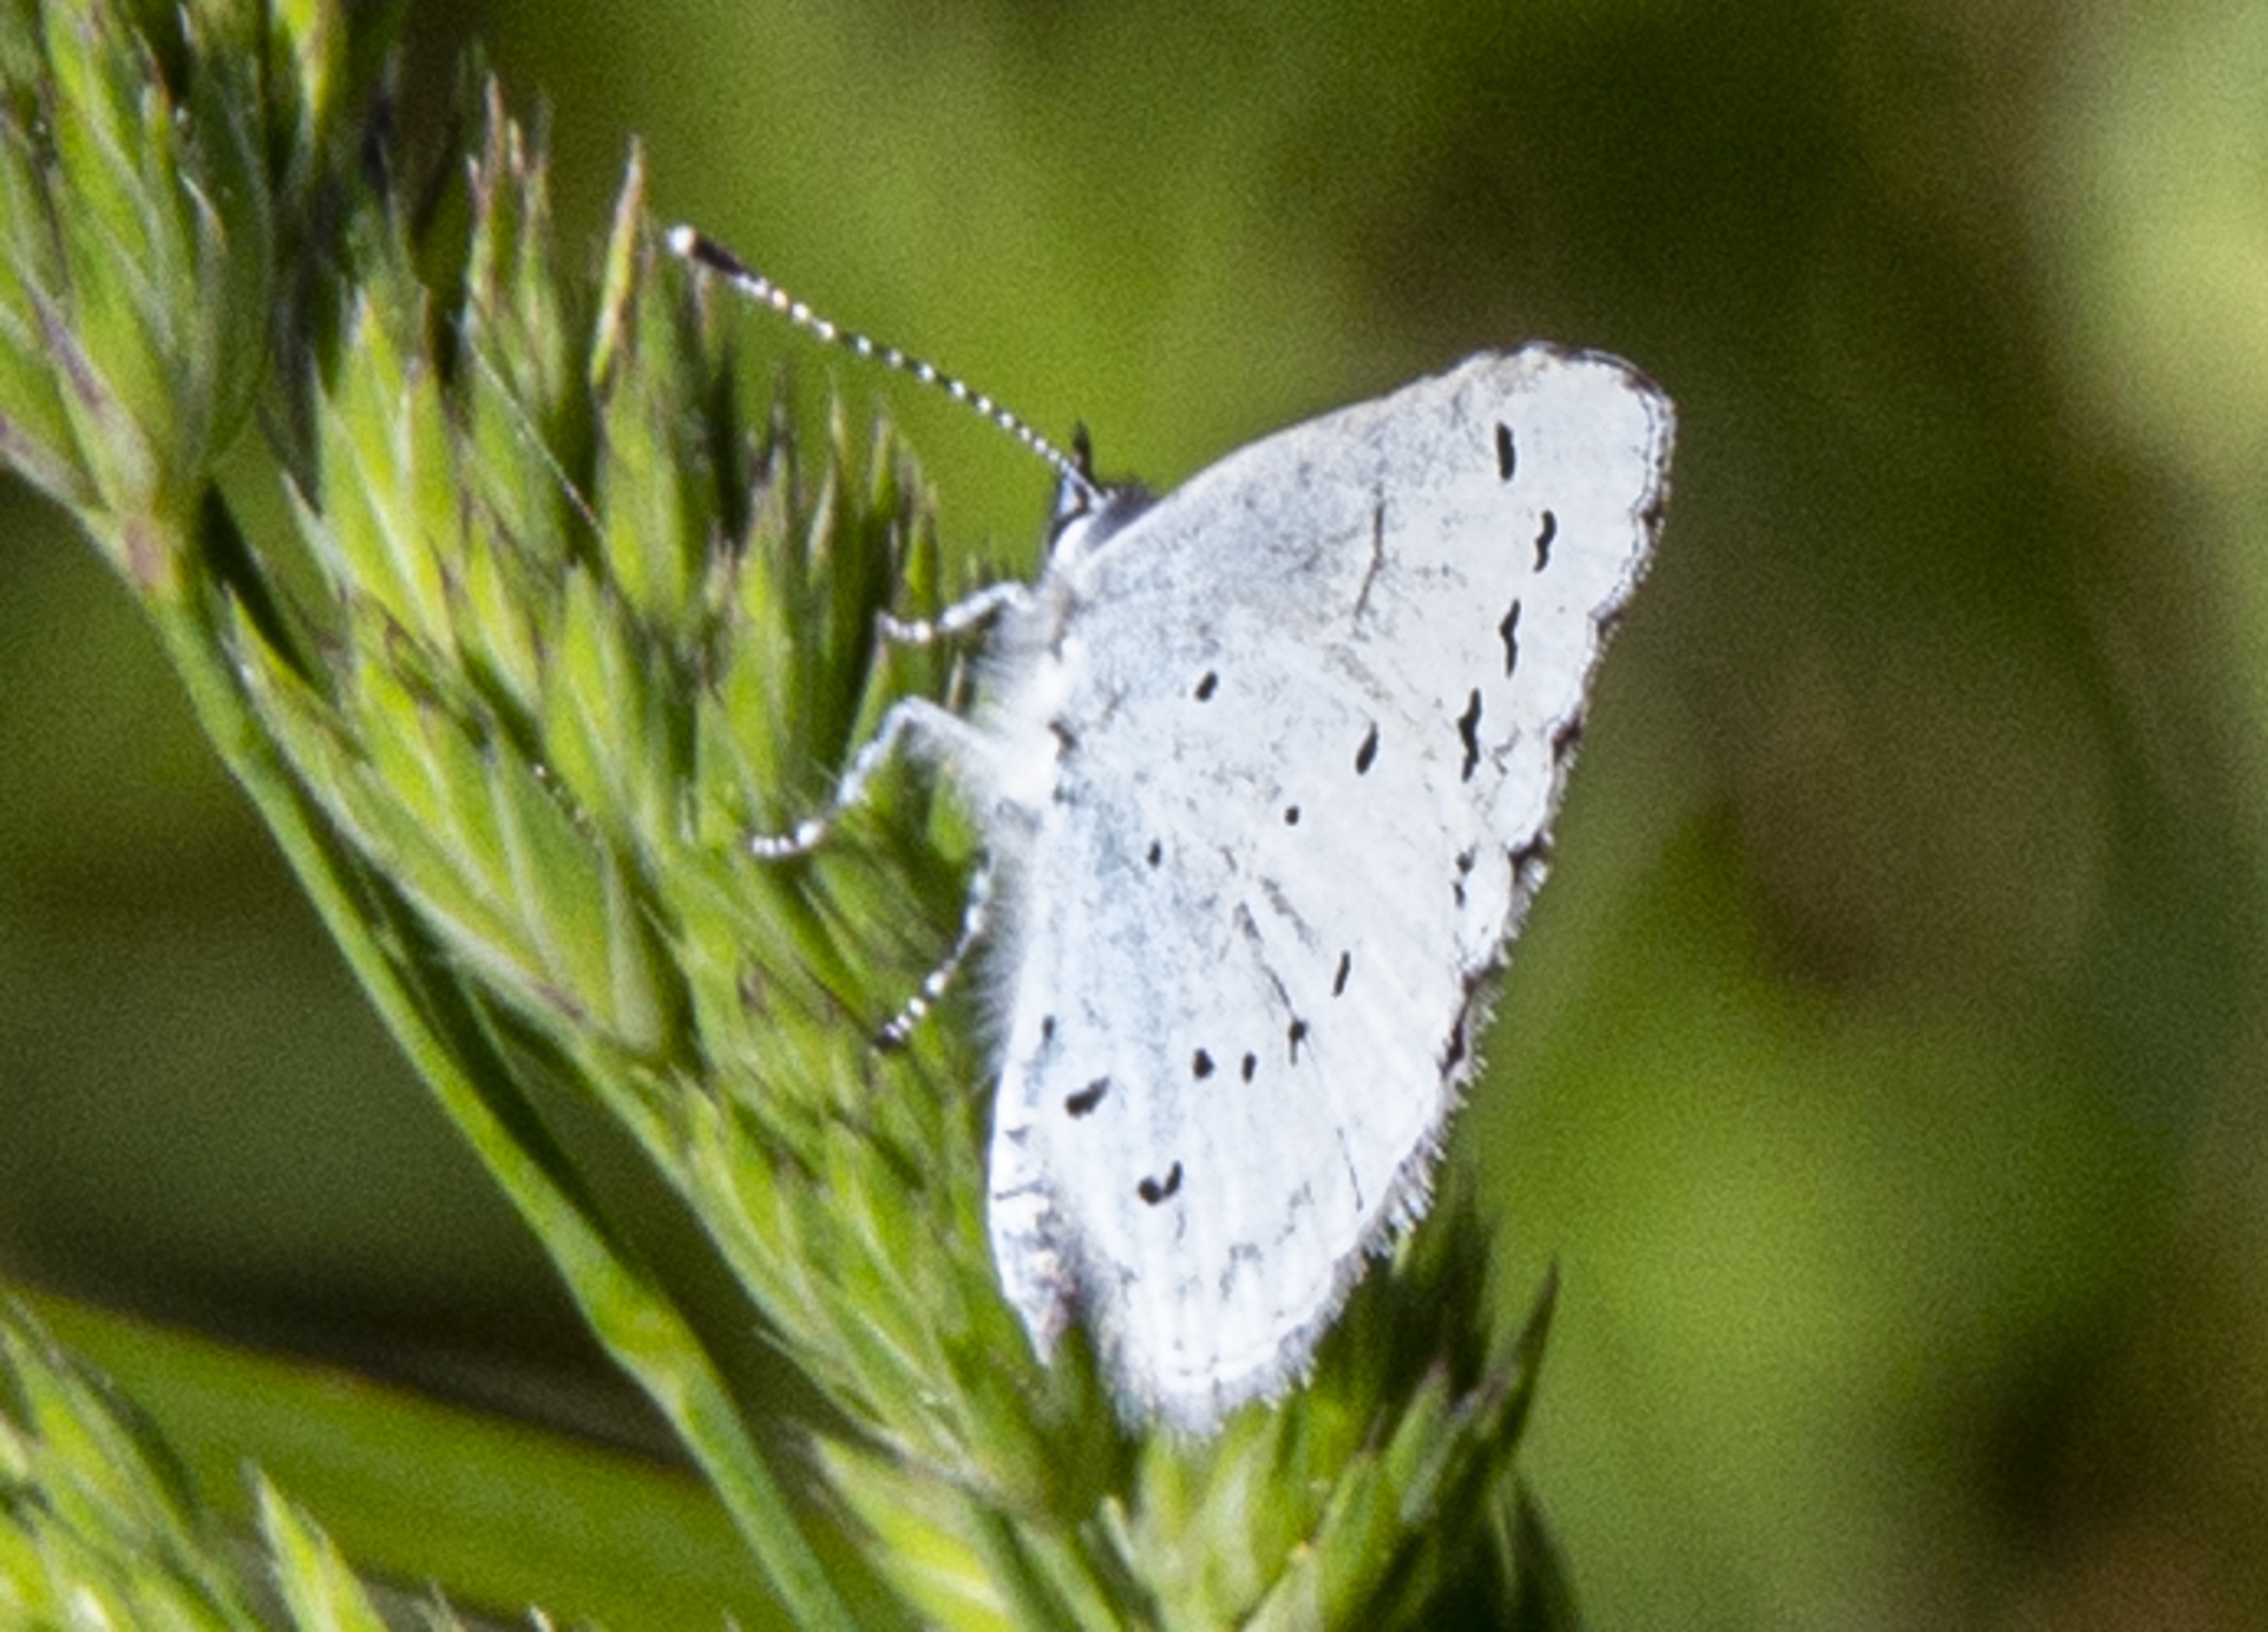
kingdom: Animalia
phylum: Arthropoda
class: Insecta
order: Lepidoptera
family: Lycaenidae
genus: Celastrina
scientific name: Celastrina argiolus
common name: Skovblåfugl
